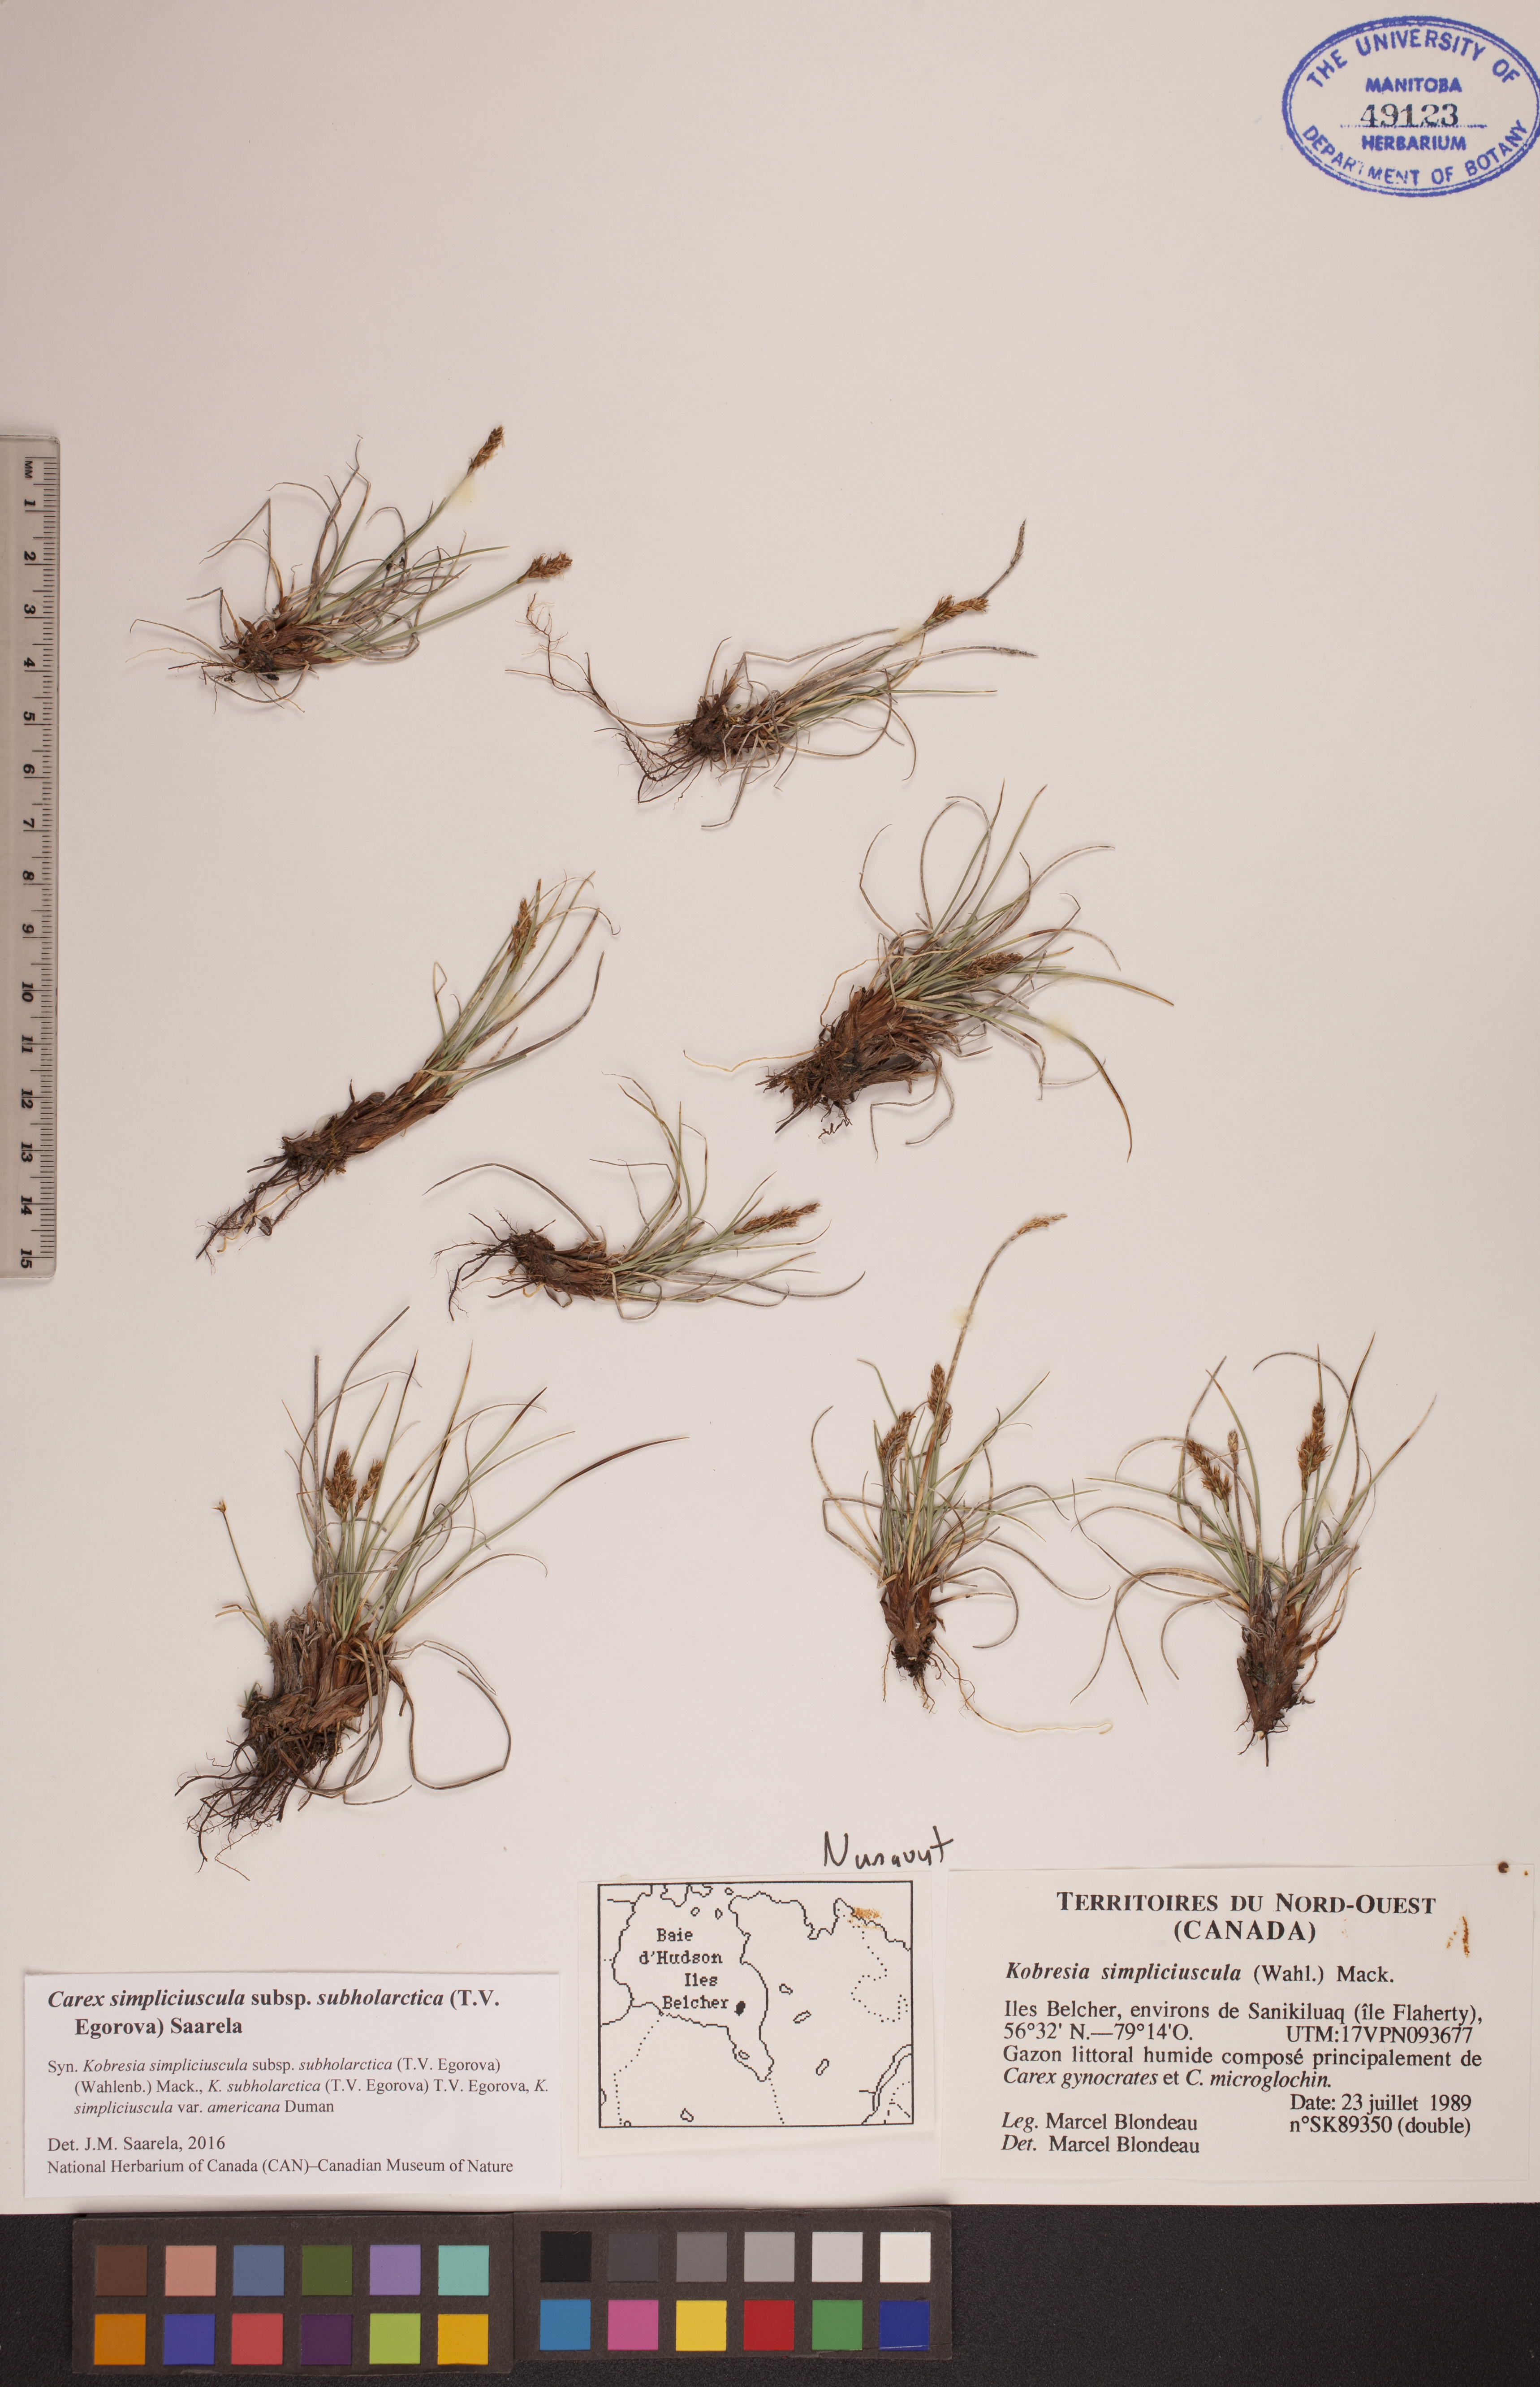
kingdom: Plantae
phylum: Tracheophyta
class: Liliopsida
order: Poales
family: Cyperaceae
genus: Carex
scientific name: Carex simpliciuscula
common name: Simple bog sedge
